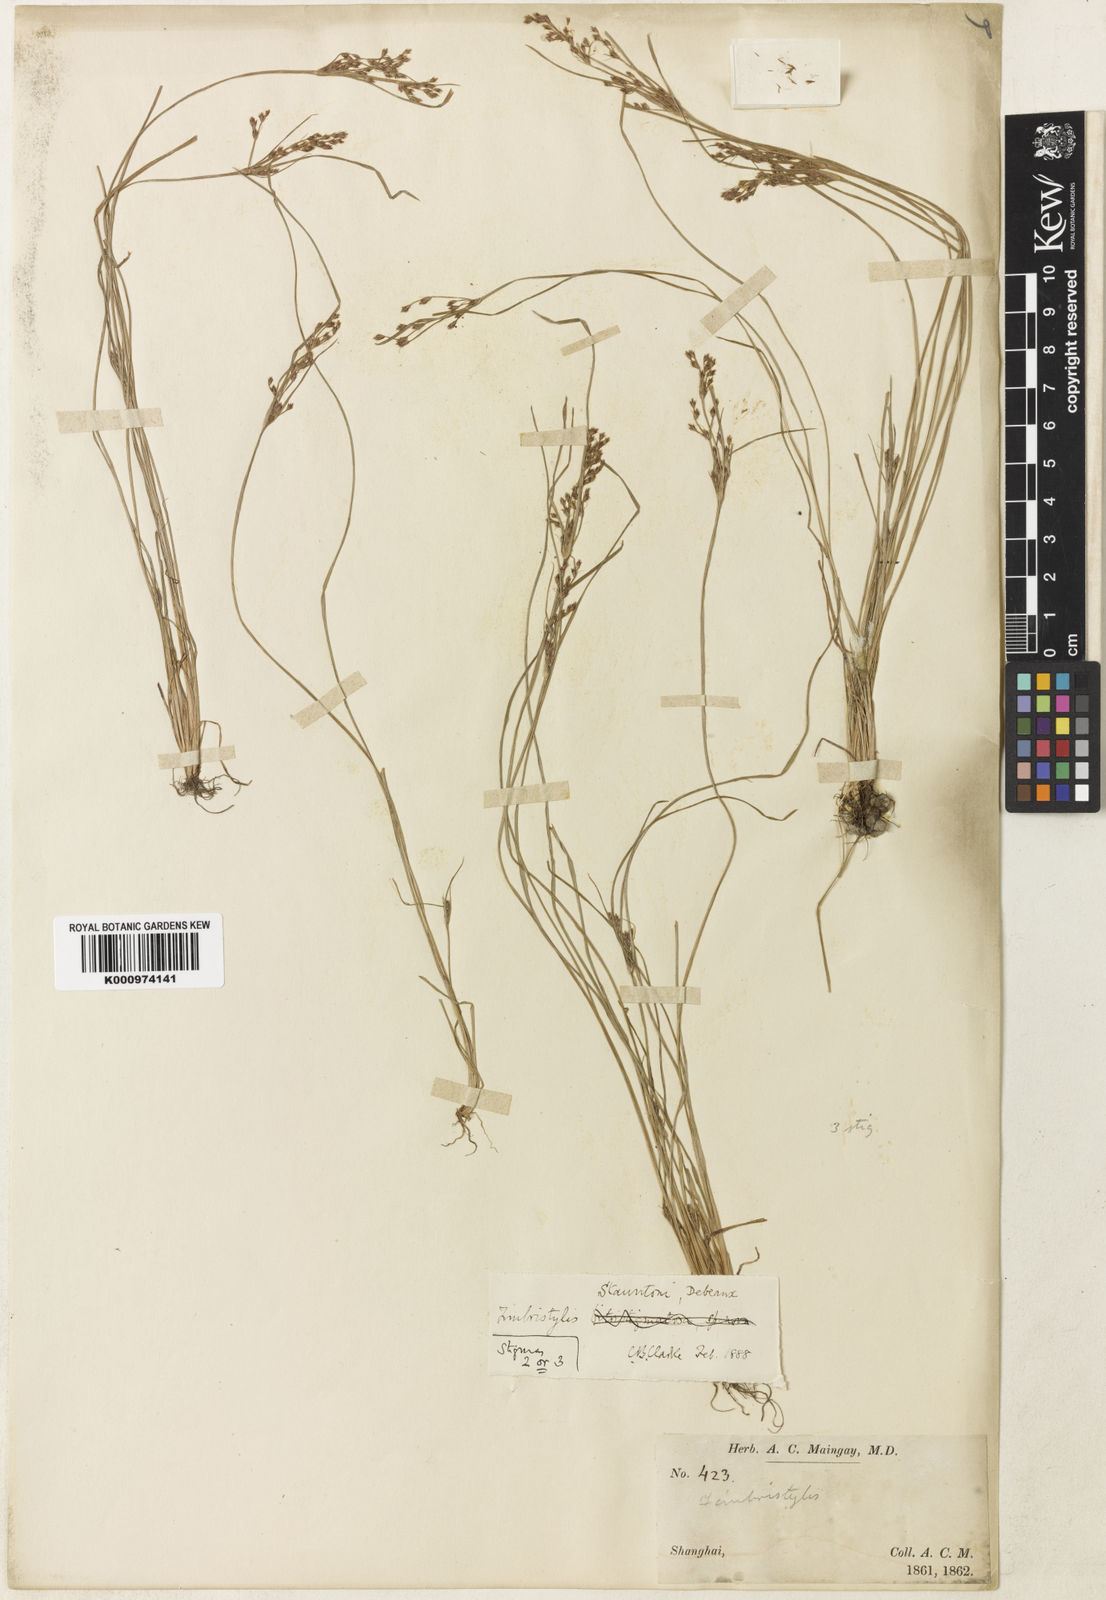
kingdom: Plantae
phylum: Tracheophyta
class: Liliopsida
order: Poales
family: Cyperaceae
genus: Fimbristylis
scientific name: Fimbristylis stauntonii
